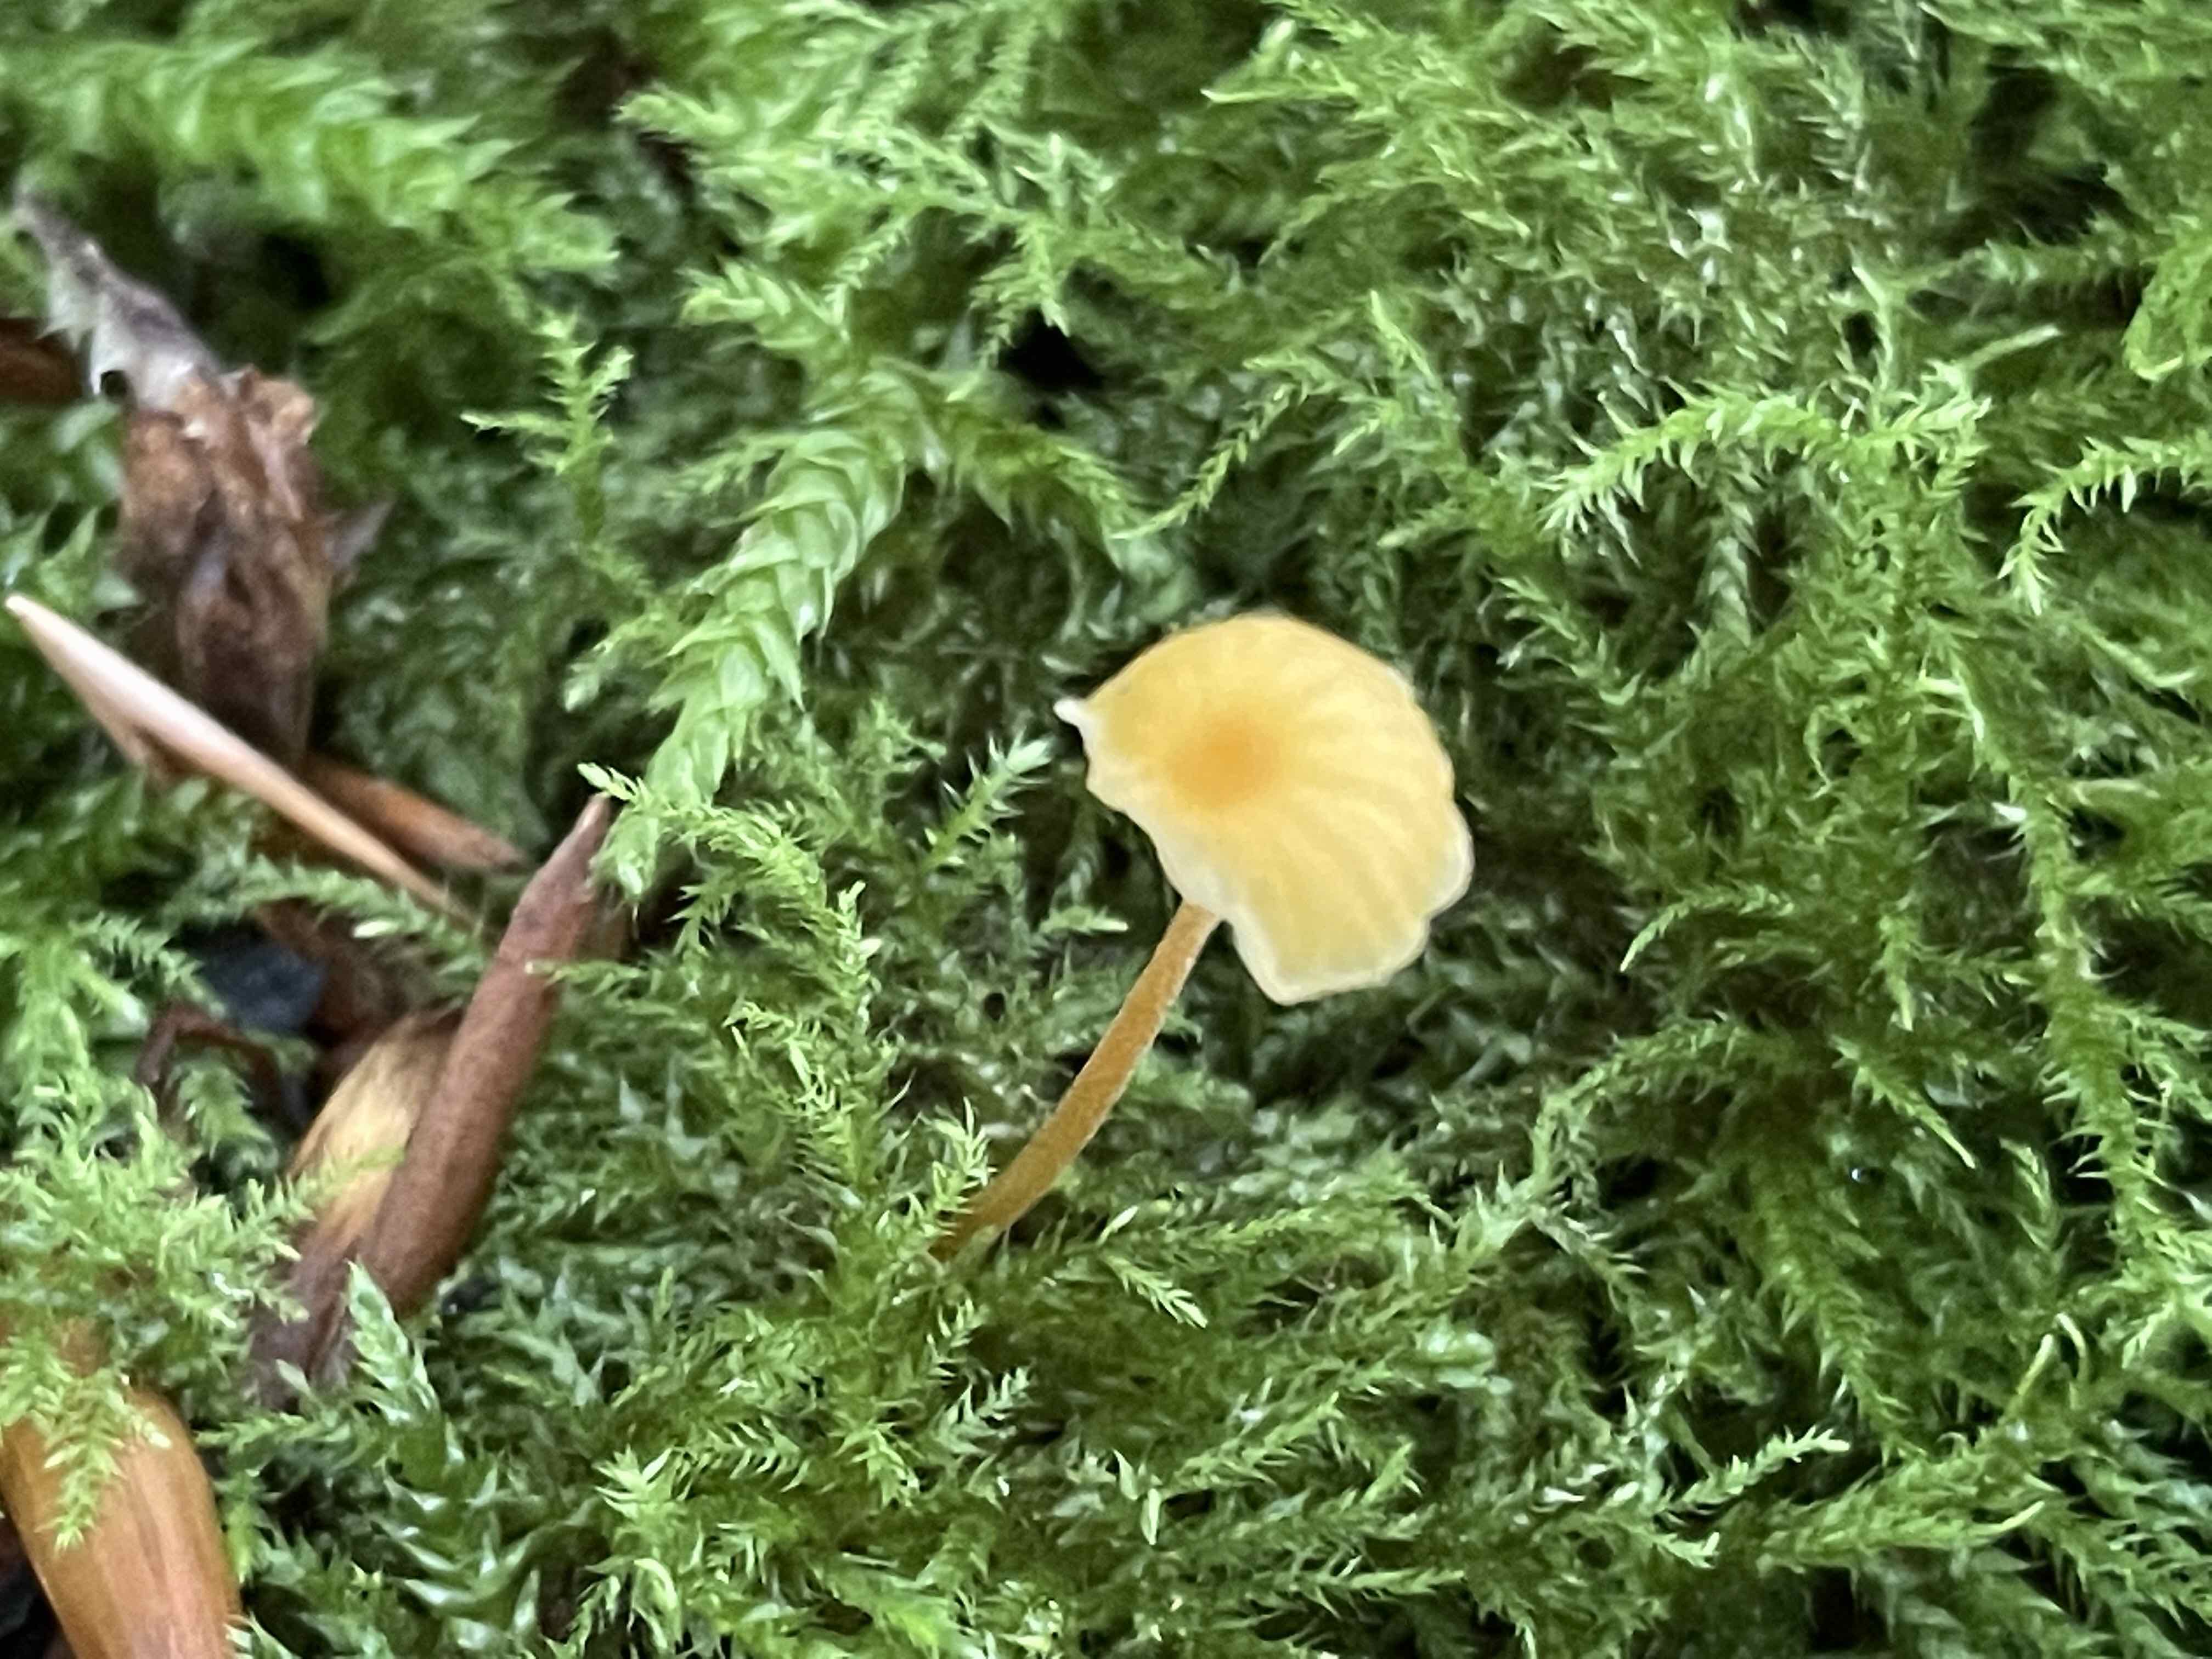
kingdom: Fungi
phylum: Basidiomycota
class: Agaricomycetes
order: Hymenochaetales
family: Rickenellaceae
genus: Rickenella
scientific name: Rickenella fibula
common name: orange mosnavlehat
